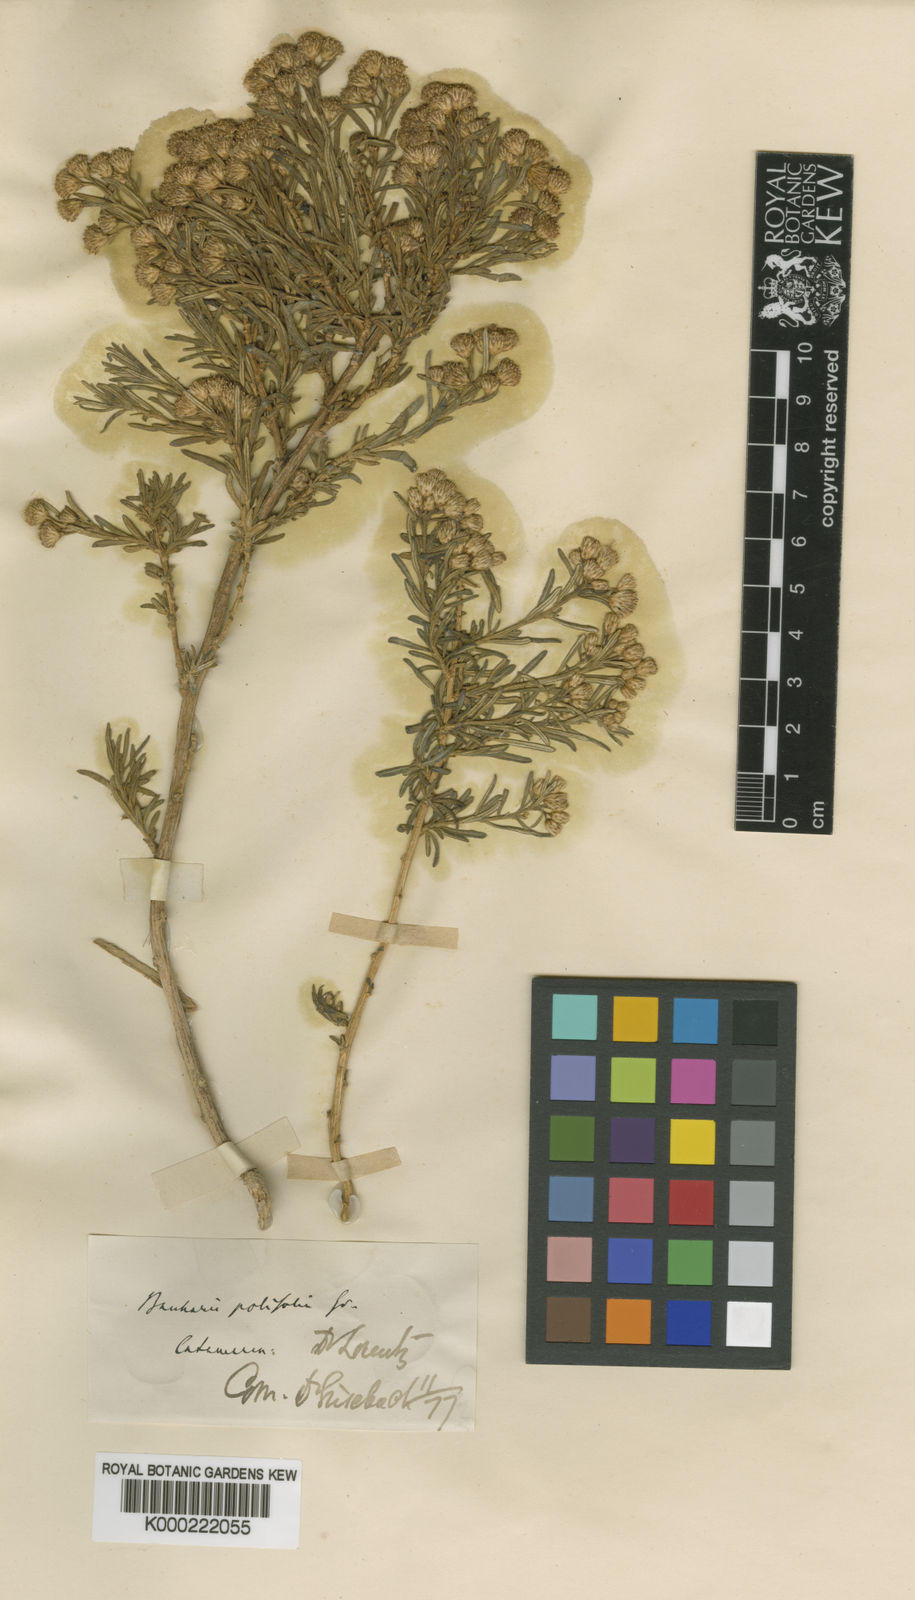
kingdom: Plantae
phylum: Tracheophyta
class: Magnoliopsida
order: Asterales
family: Asteraceae
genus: Baccharis
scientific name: Baccharis polifolia
